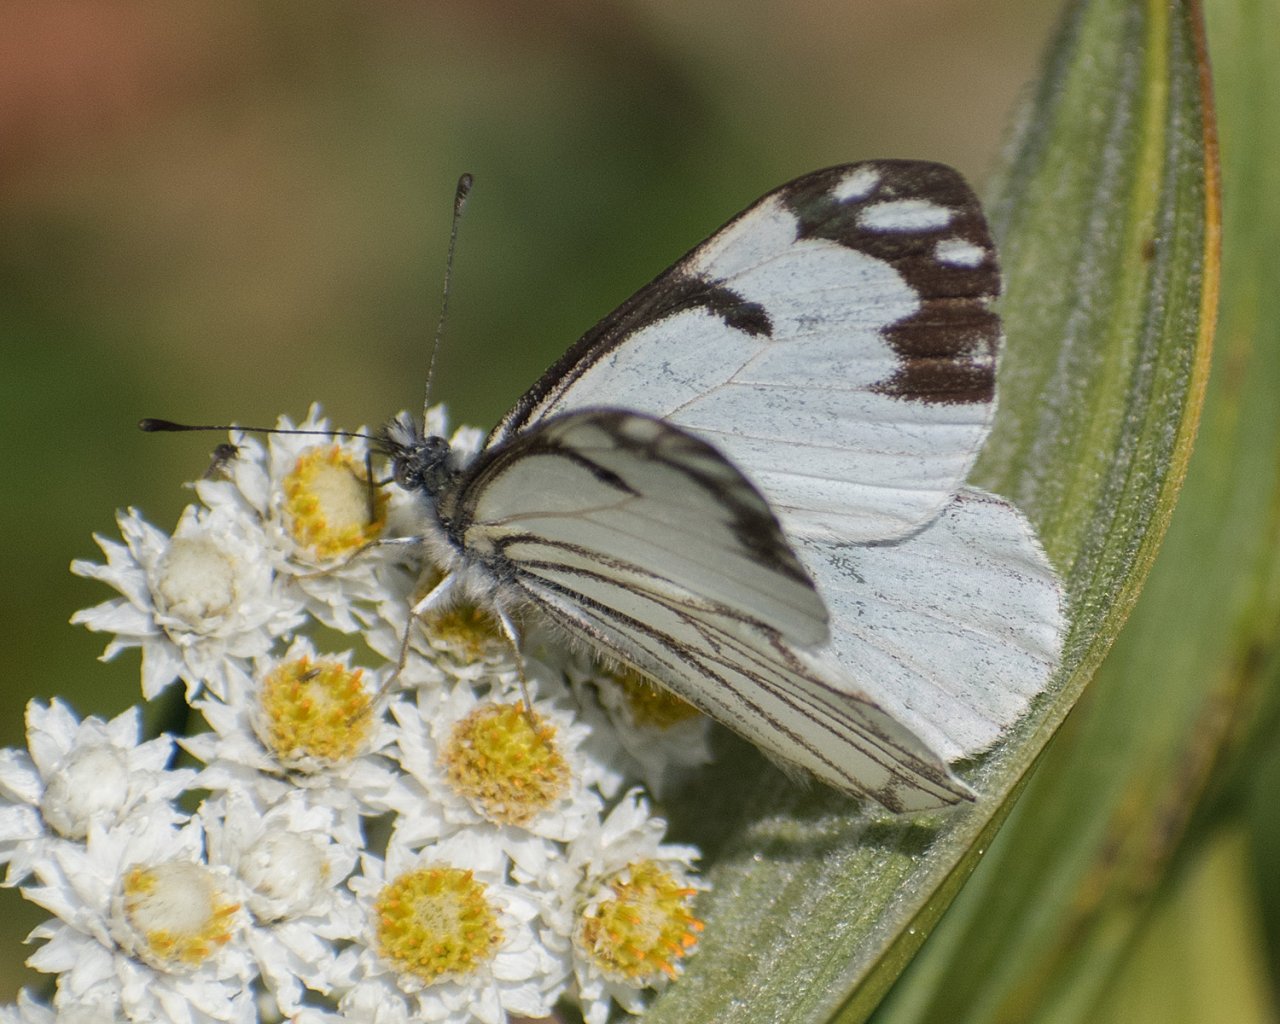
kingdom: Animalia
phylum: Arthropoda
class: Insecta
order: Lepidoptera
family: Pieridae
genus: Neophasia
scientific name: Neophasia menapia
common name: Pine White
